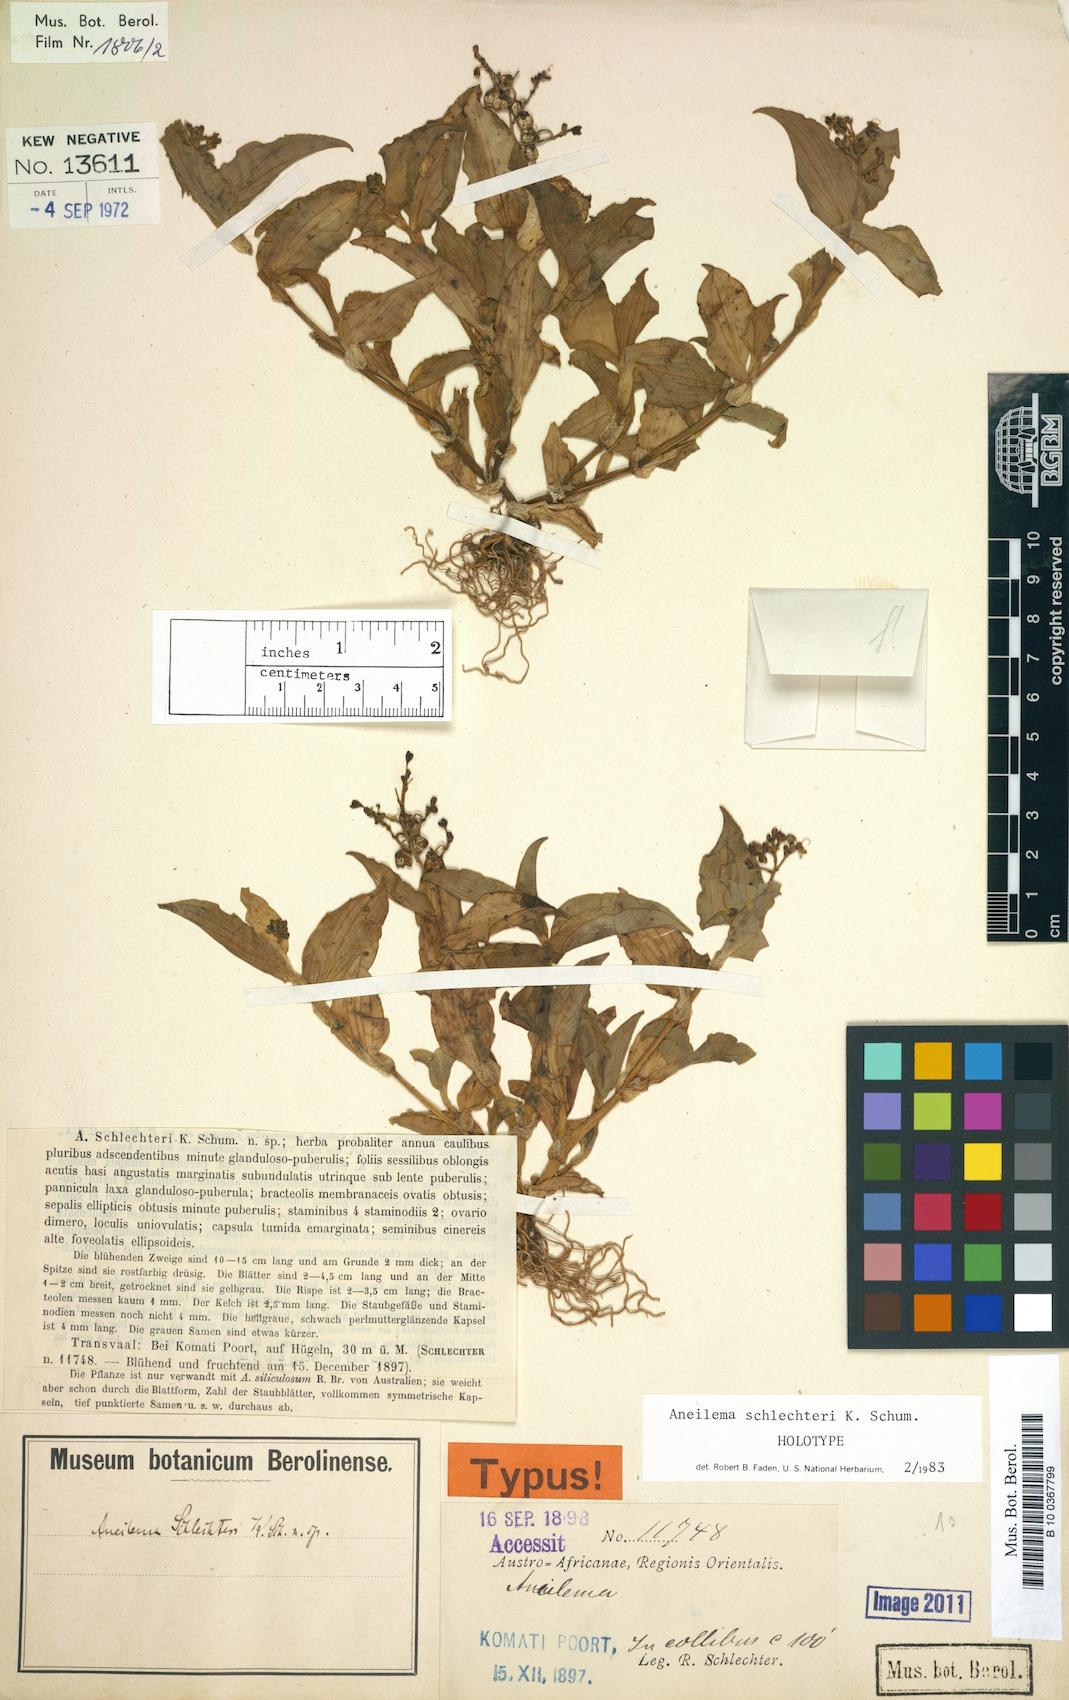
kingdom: Plantae
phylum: Tracheophyta
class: Liliopsida
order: Commelinales
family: Commelinaceae
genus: Aneilema
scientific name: Aneilema schlechteri
